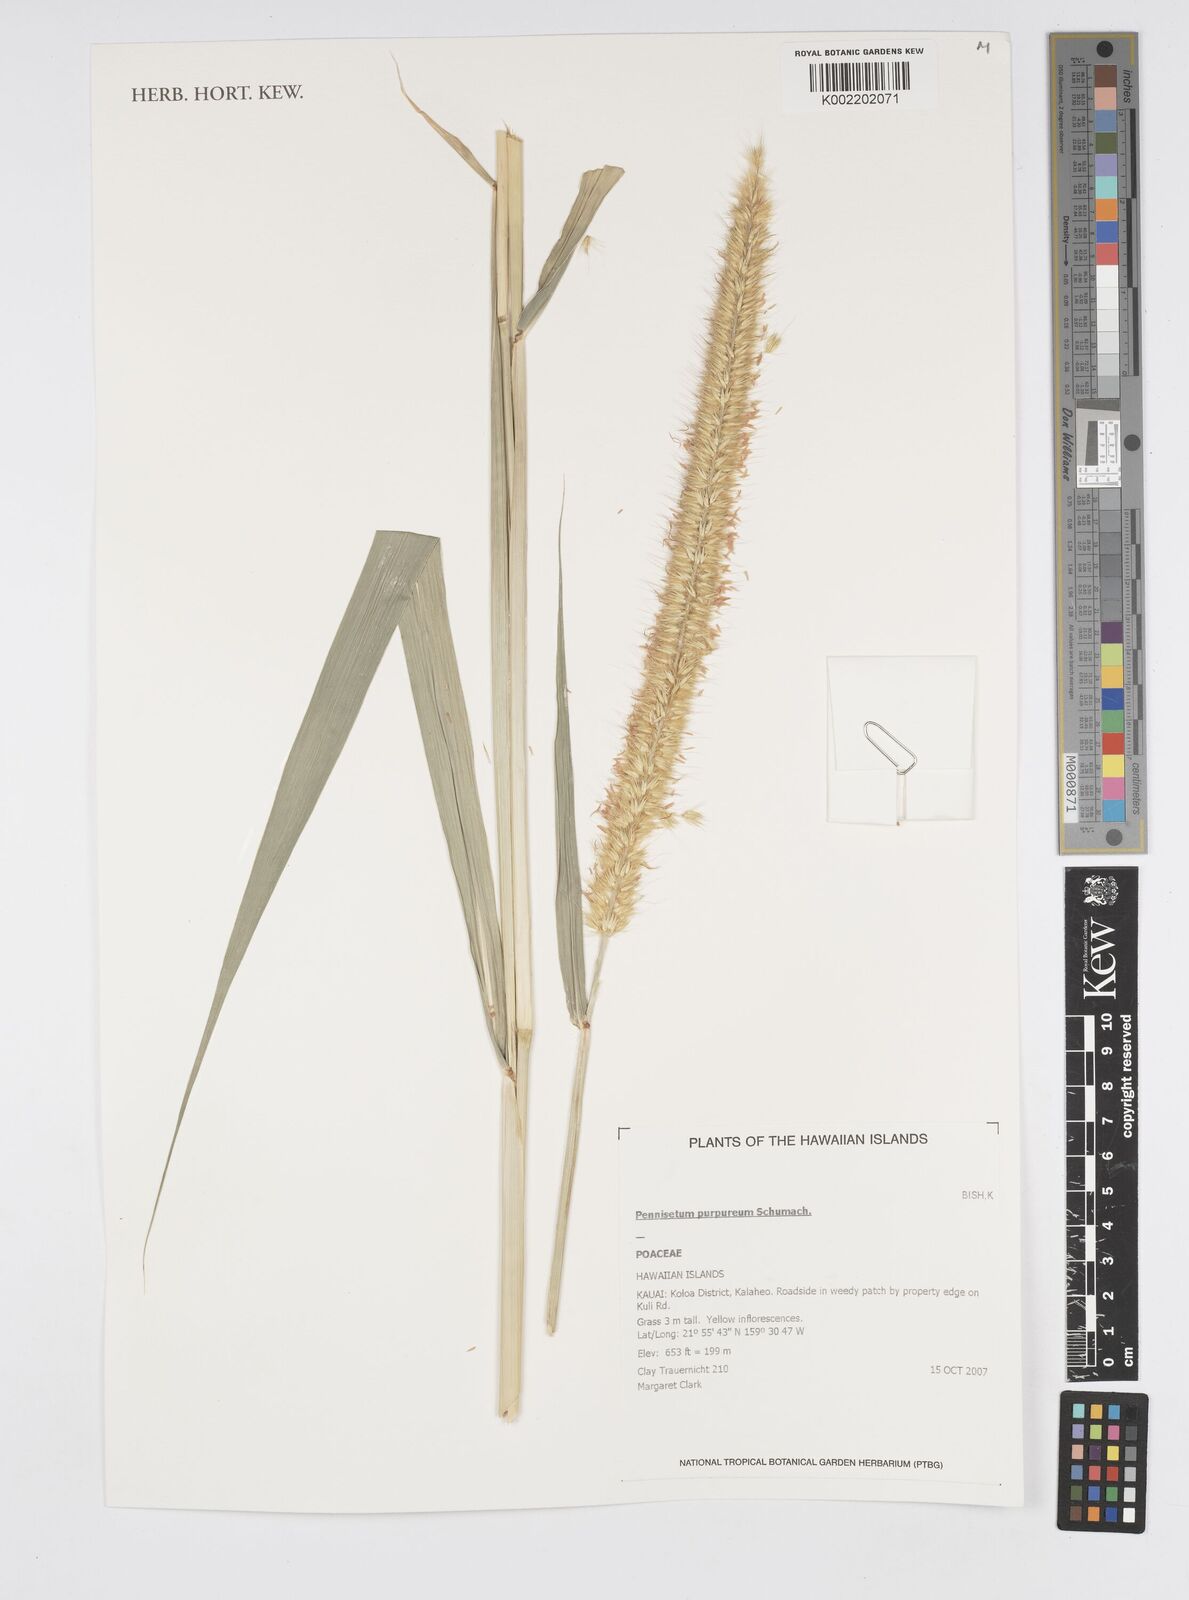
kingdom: Plantae
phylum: Tracheophyta
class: Liliopsida
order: Poales
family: Poaceae
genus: Cenchrus
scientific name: Cenchrus purpureus
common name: Elephant grass
